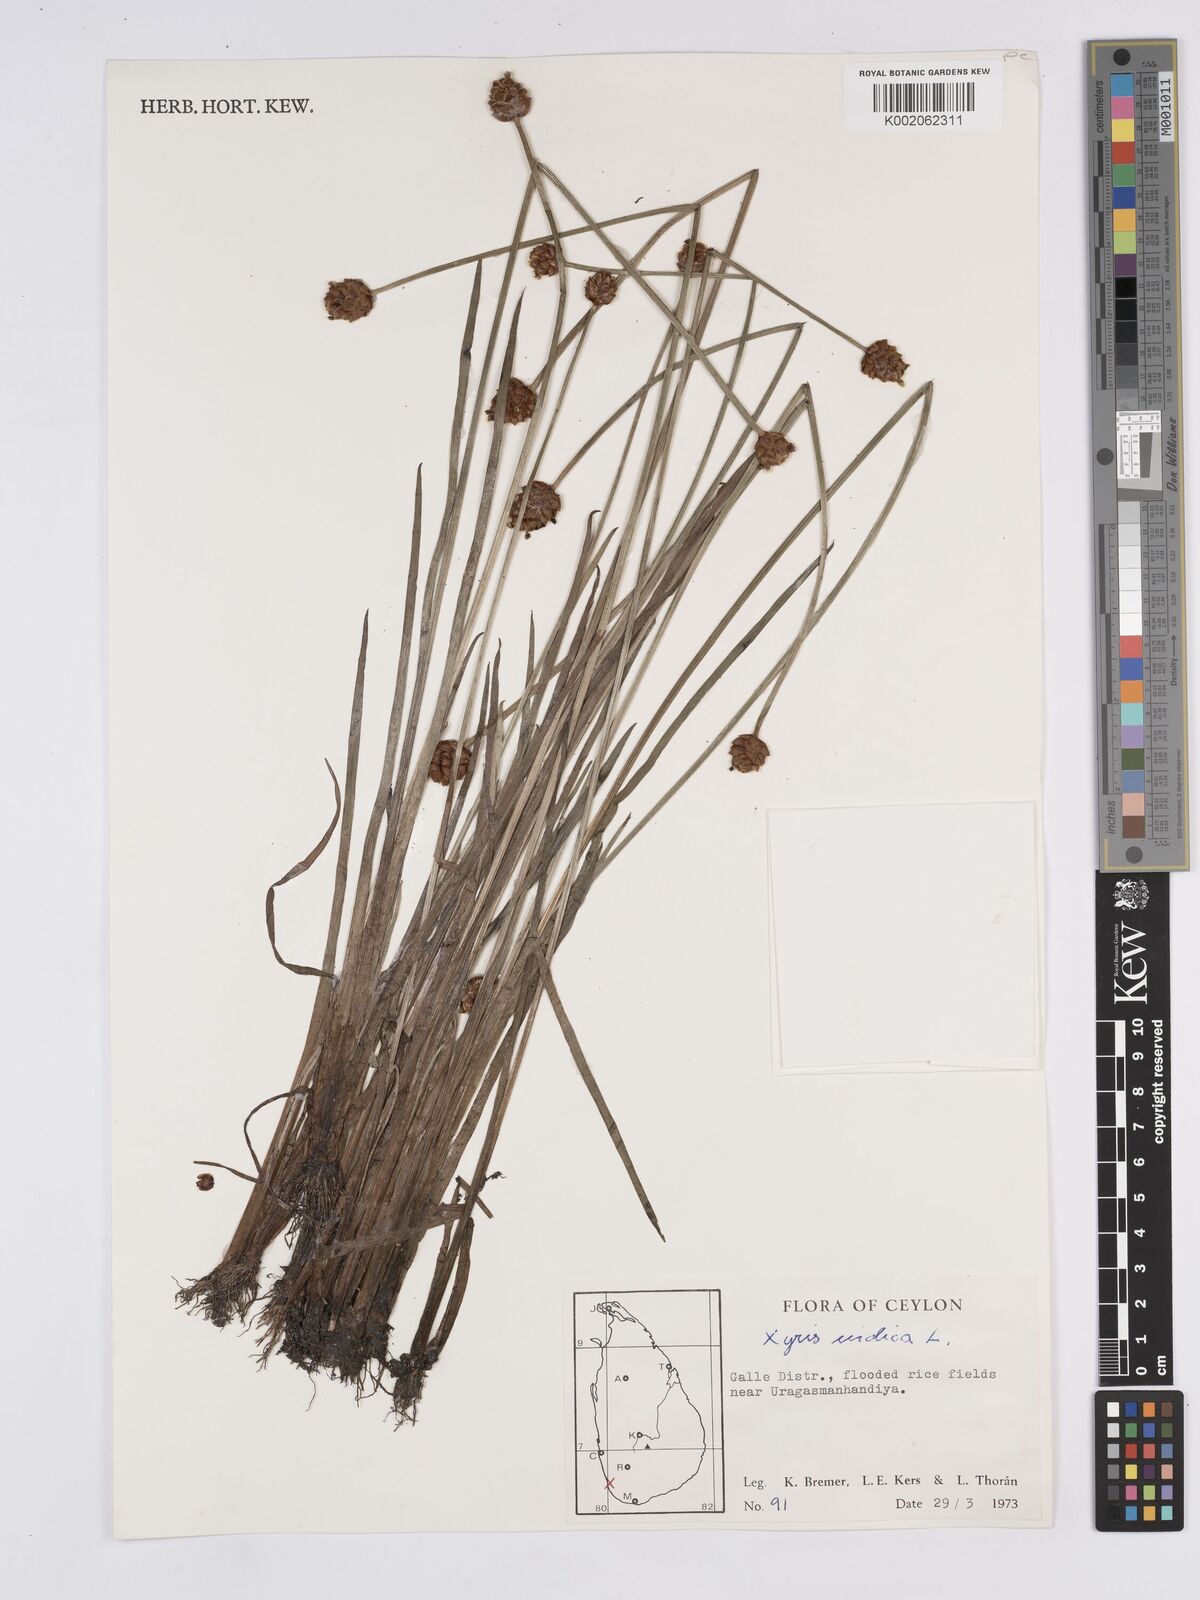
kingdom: Plantae
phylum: Tracheophyta
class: Liliopsida
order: Poales
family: Xyridaceae
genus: Xyris
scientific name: Xyris indica
